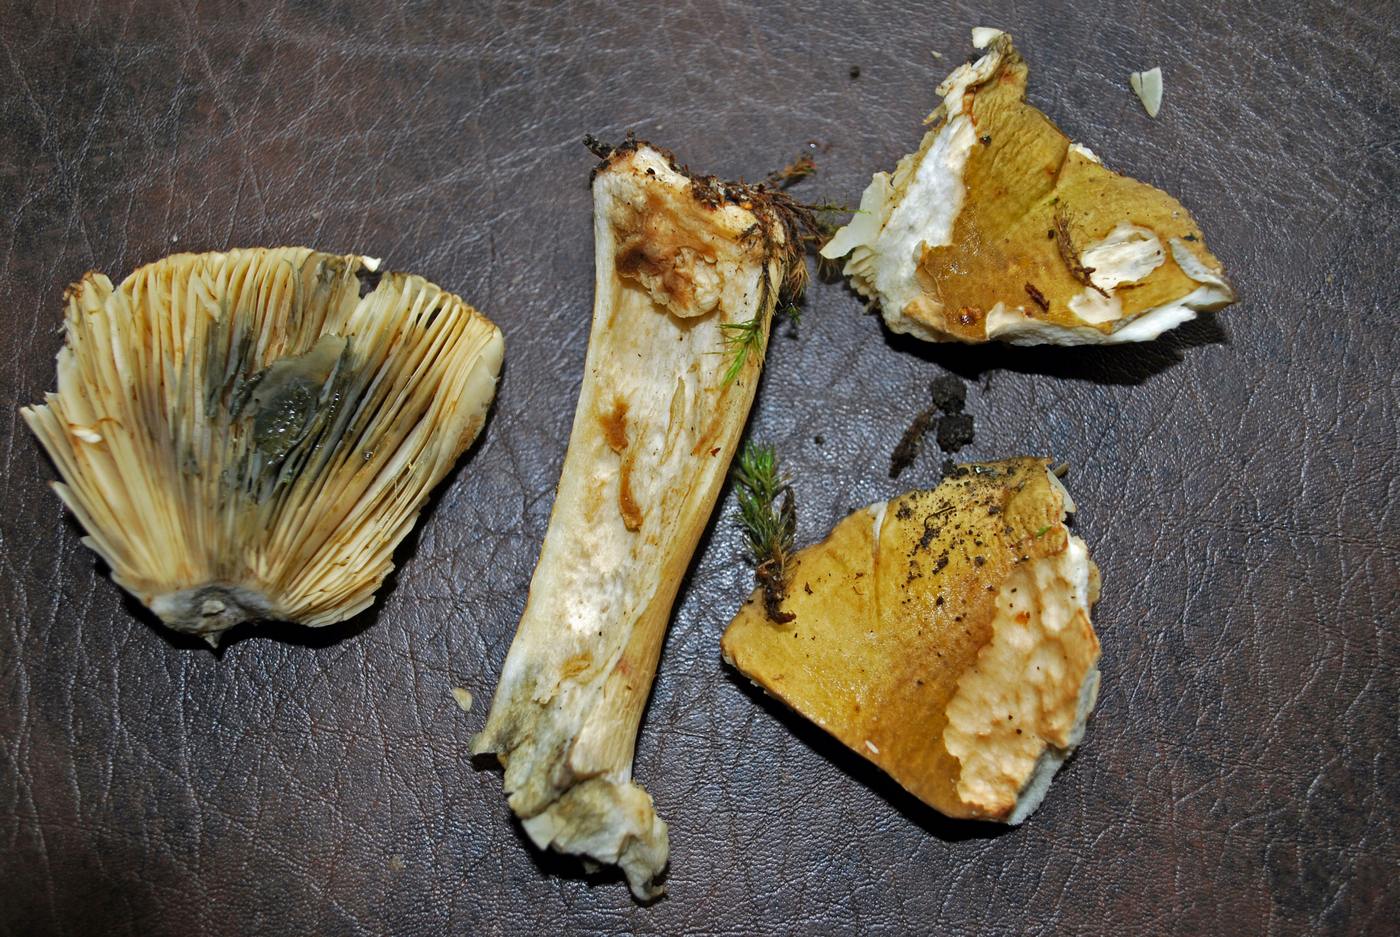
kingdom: Fungi
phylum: Basidiomycota
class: Agaricomycetes
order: Russulales
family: Russulaceae
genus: Russula
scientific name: Russula clavipes
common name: olivengrøn skørhat
